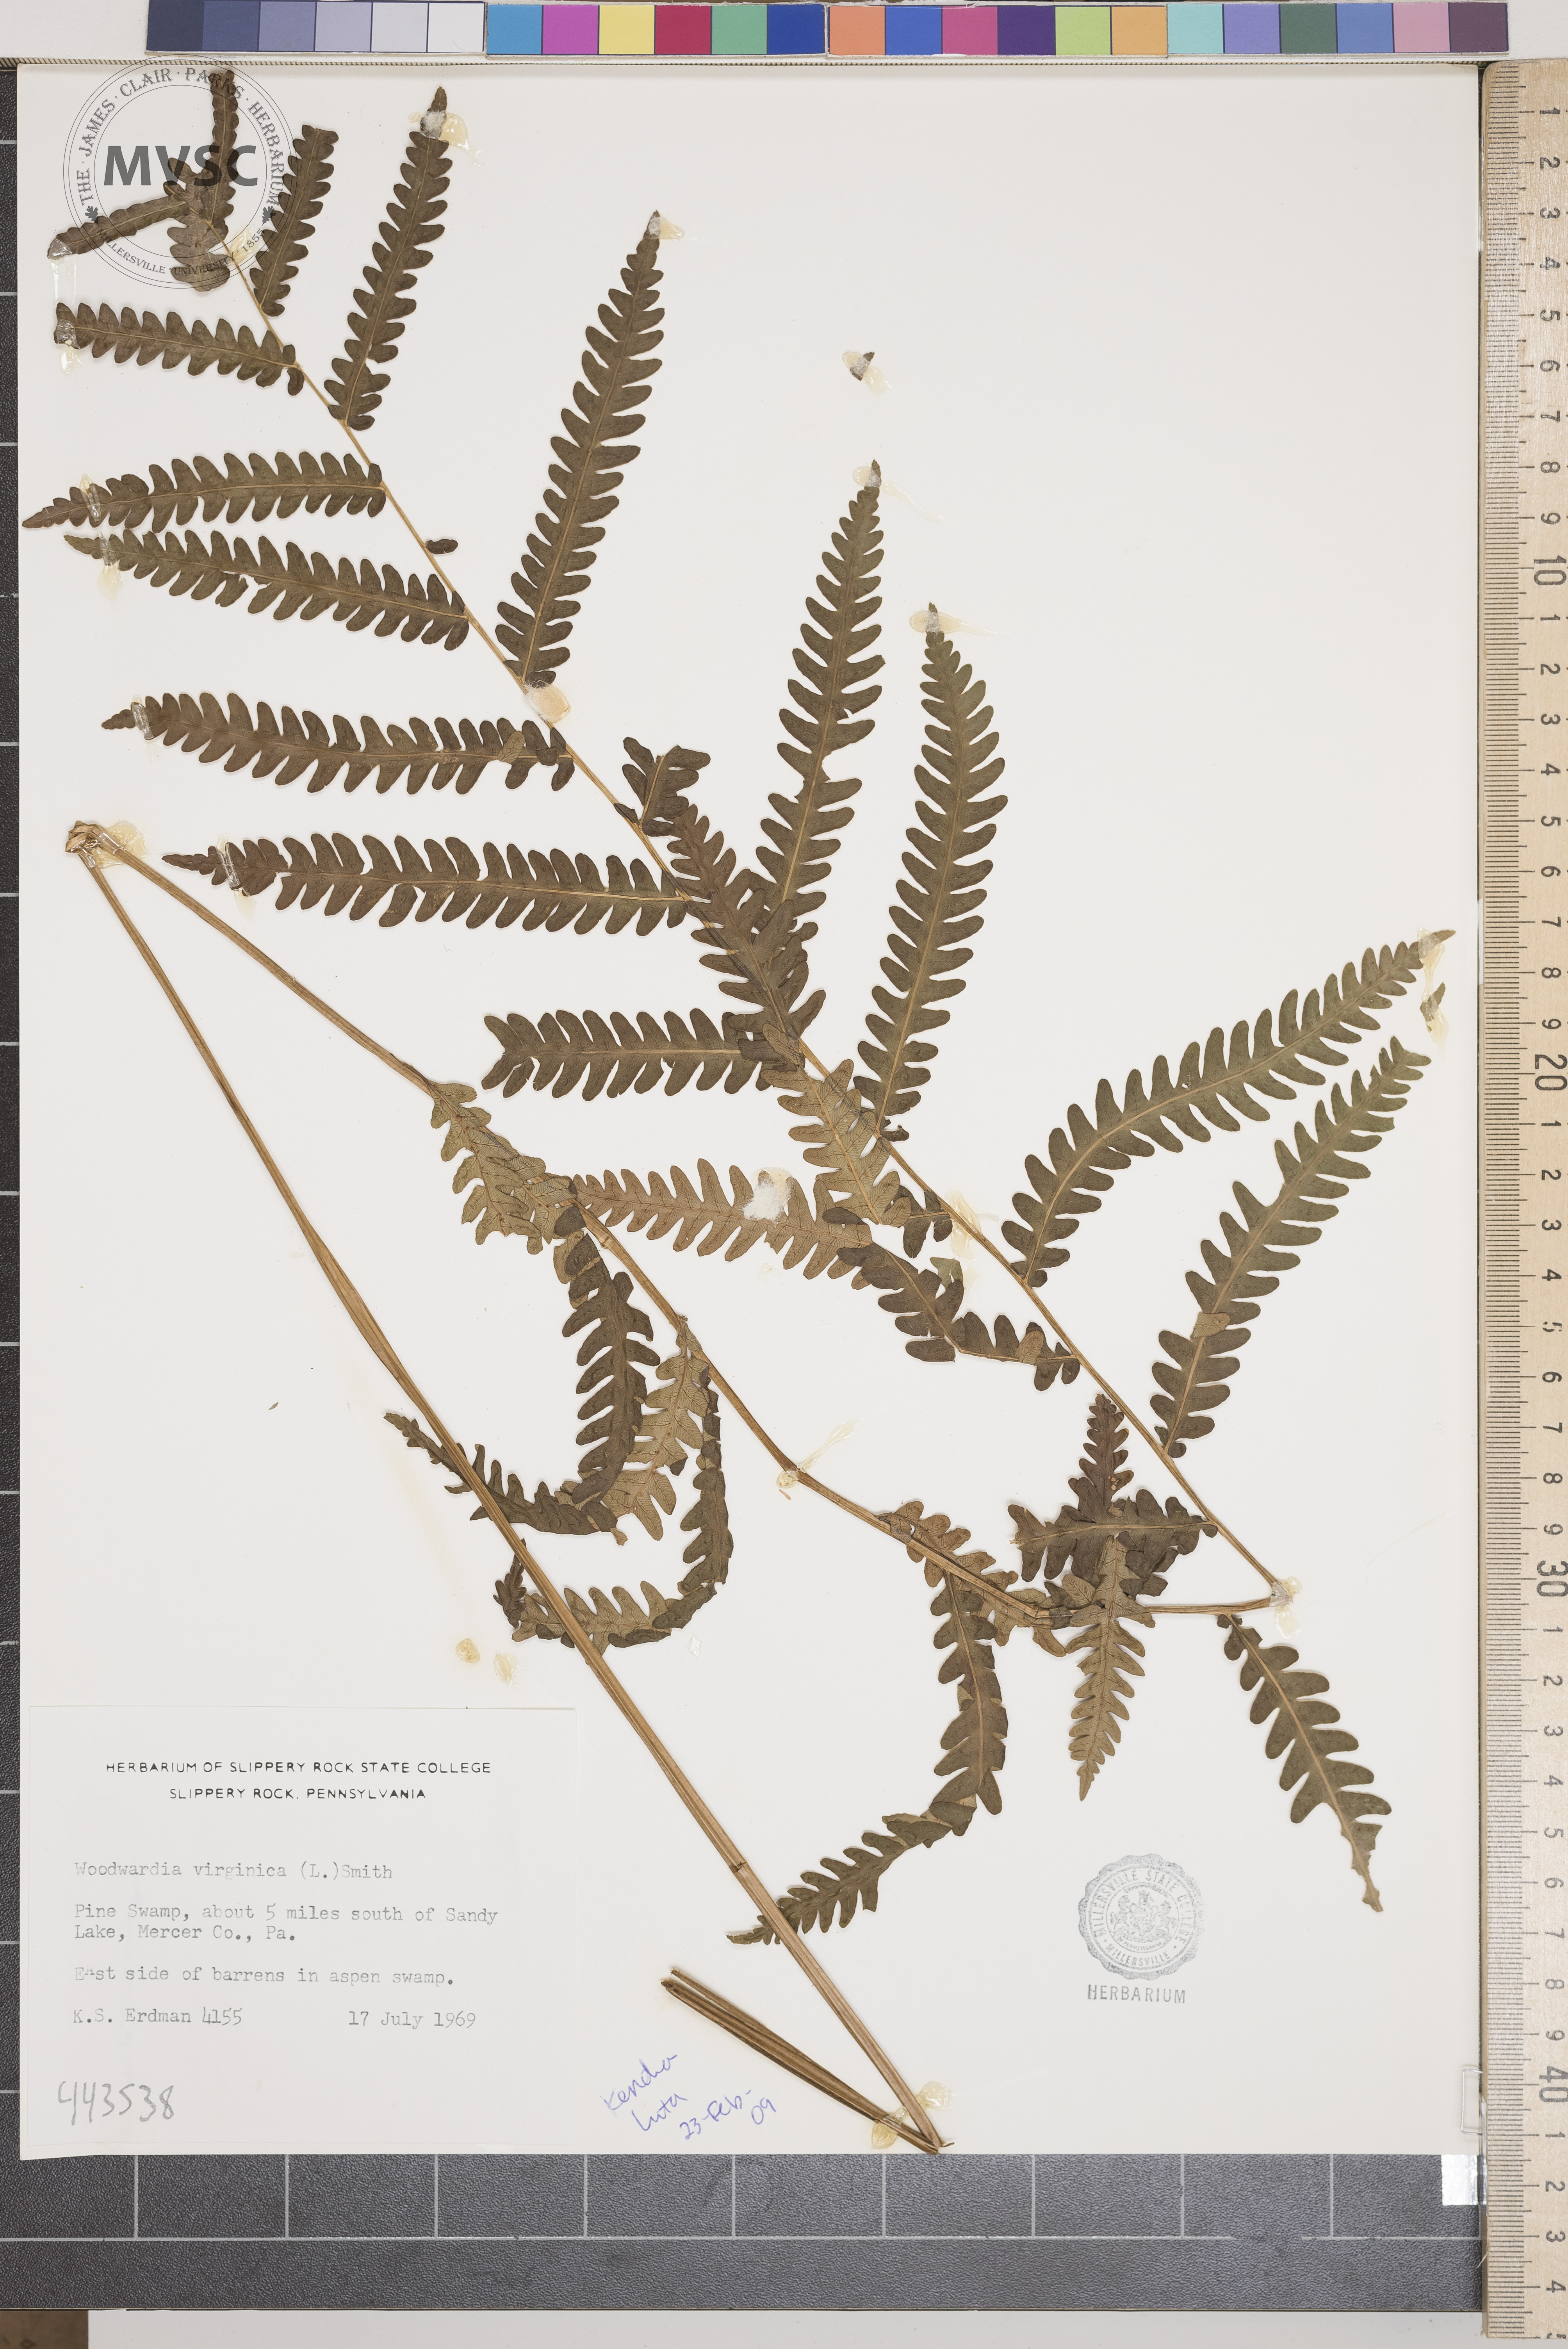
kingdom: Plantae
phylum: Tracheophyta
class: Polypodiopsida
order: Polypodiales
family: Blechnaceae
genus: Anchistea
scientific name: Anchistea virginica
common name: Virginia chain fern
